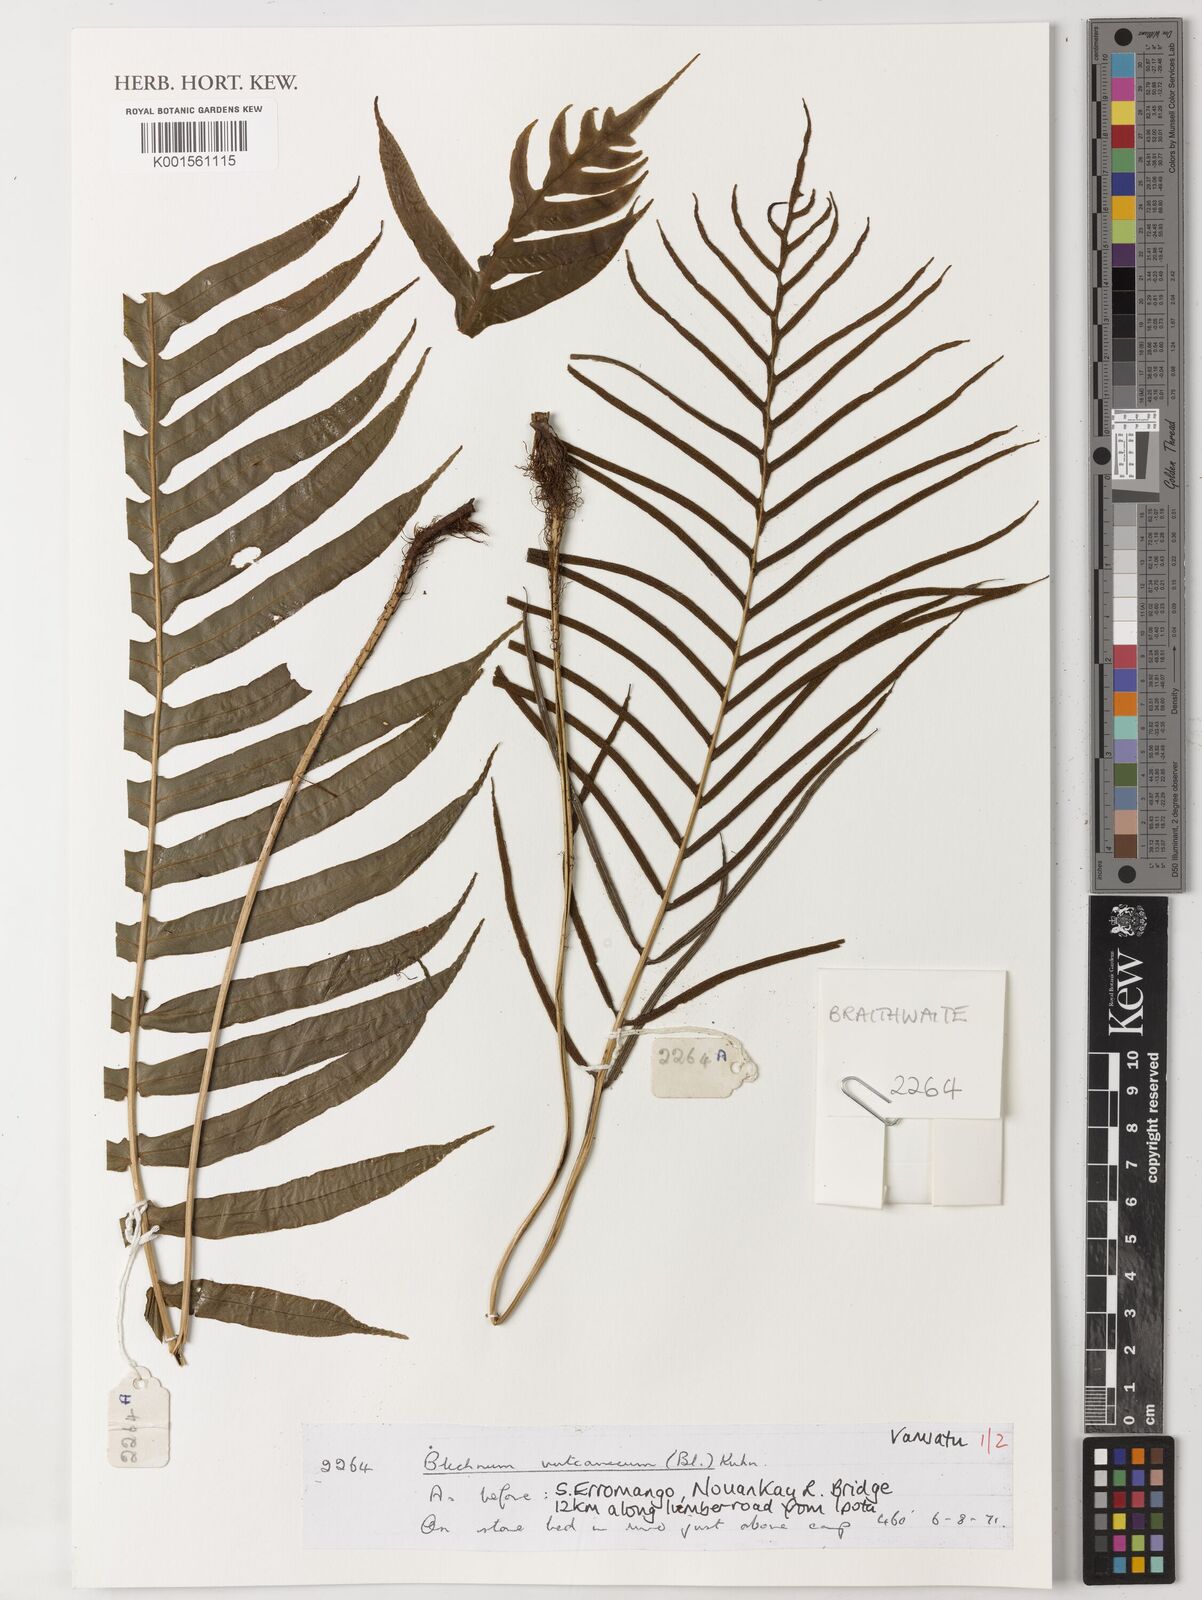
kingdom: Plantae
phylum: Tracheophyta
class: Polypodiopsida
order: Polypodiales
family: Blechnaceae
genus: Cranfillia
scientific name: Cranfillia vulcanica
